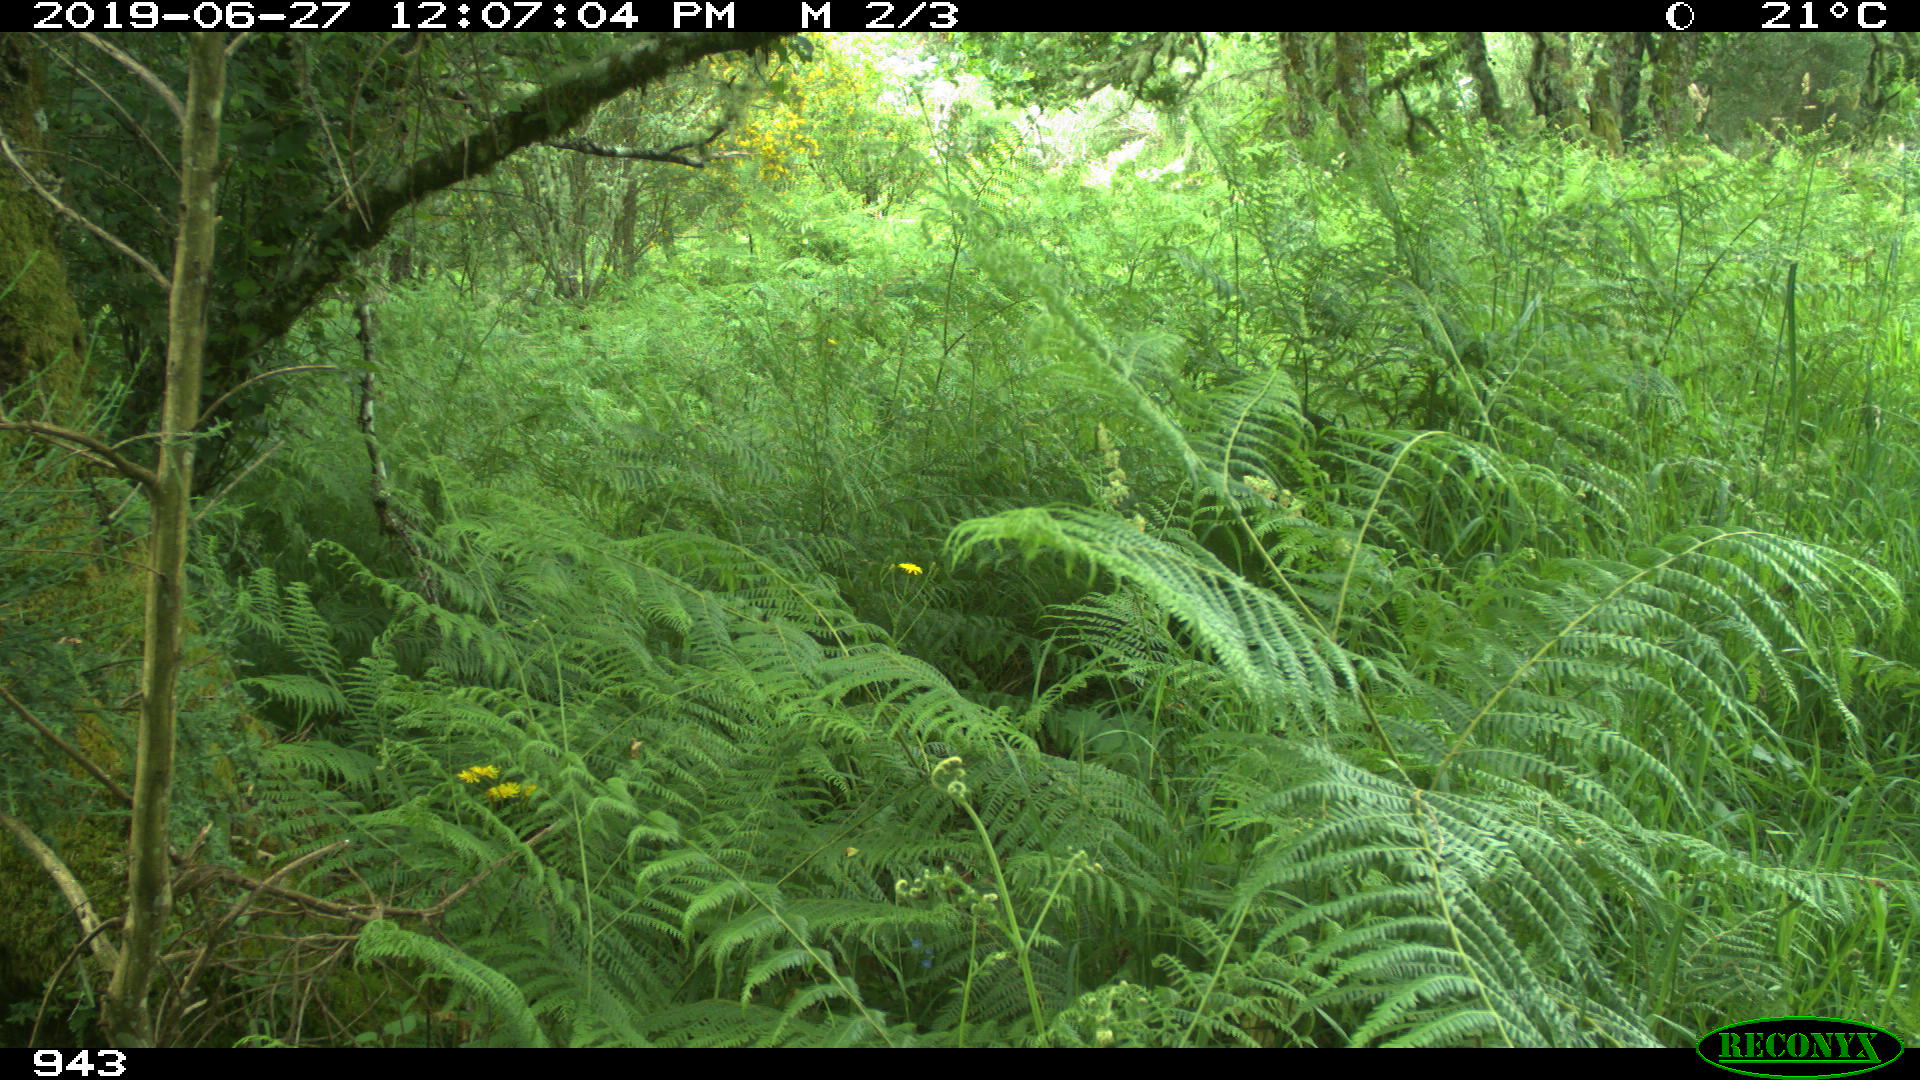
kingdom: Animalia
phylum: Chordata
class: Mammalia
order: Artiodactyla
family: Cervidae
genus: Capreolus
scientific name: Capreolus capreolus
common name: Western roe deer
